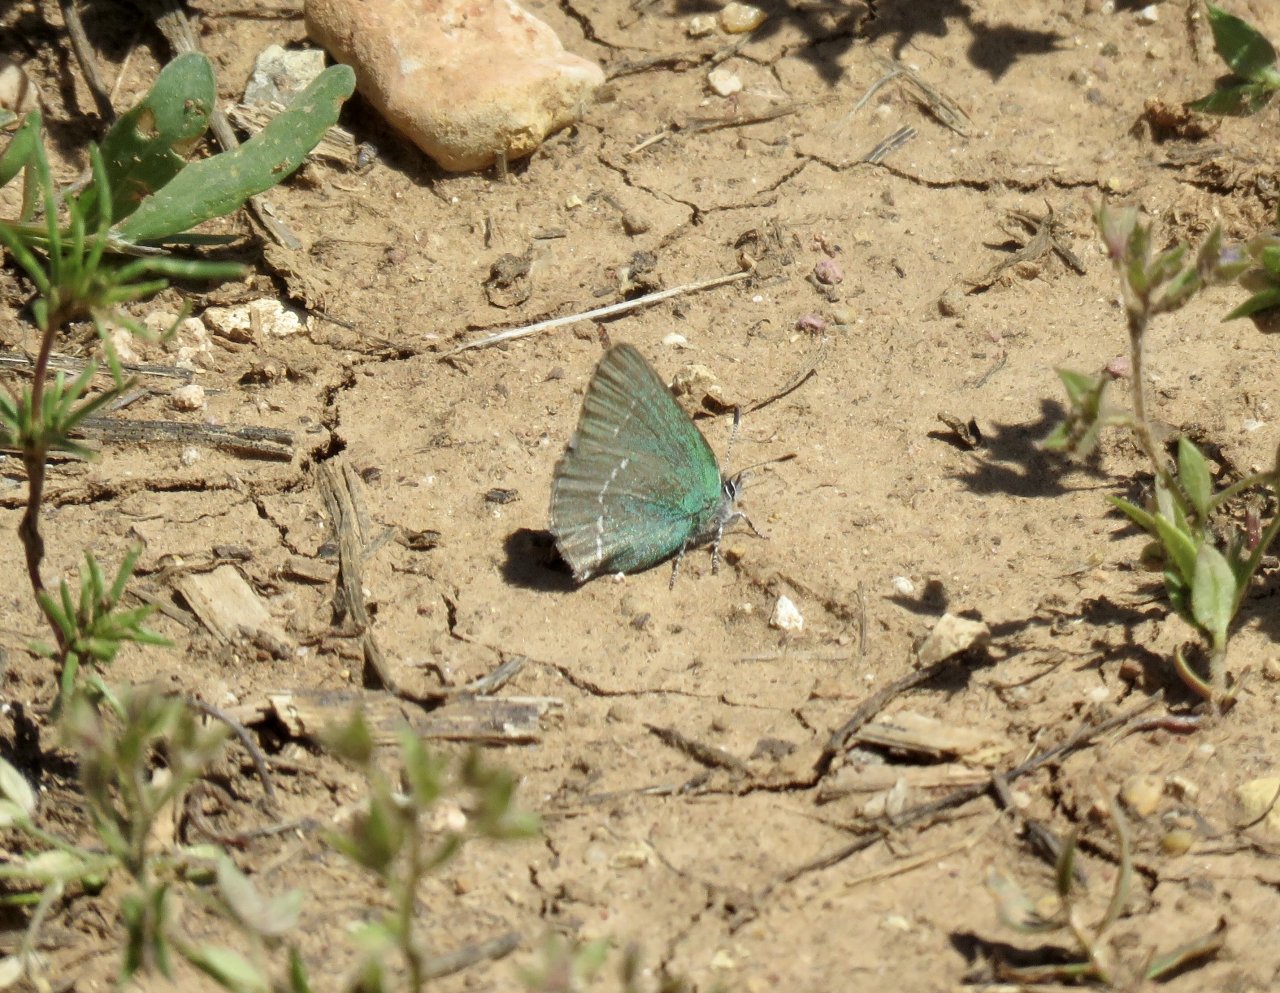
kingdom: Animalia
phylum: Arthropoda
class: Insecta
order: Lepidoptera
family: Lycaenidae
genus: Thecla
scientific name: Thecla sheridanii
